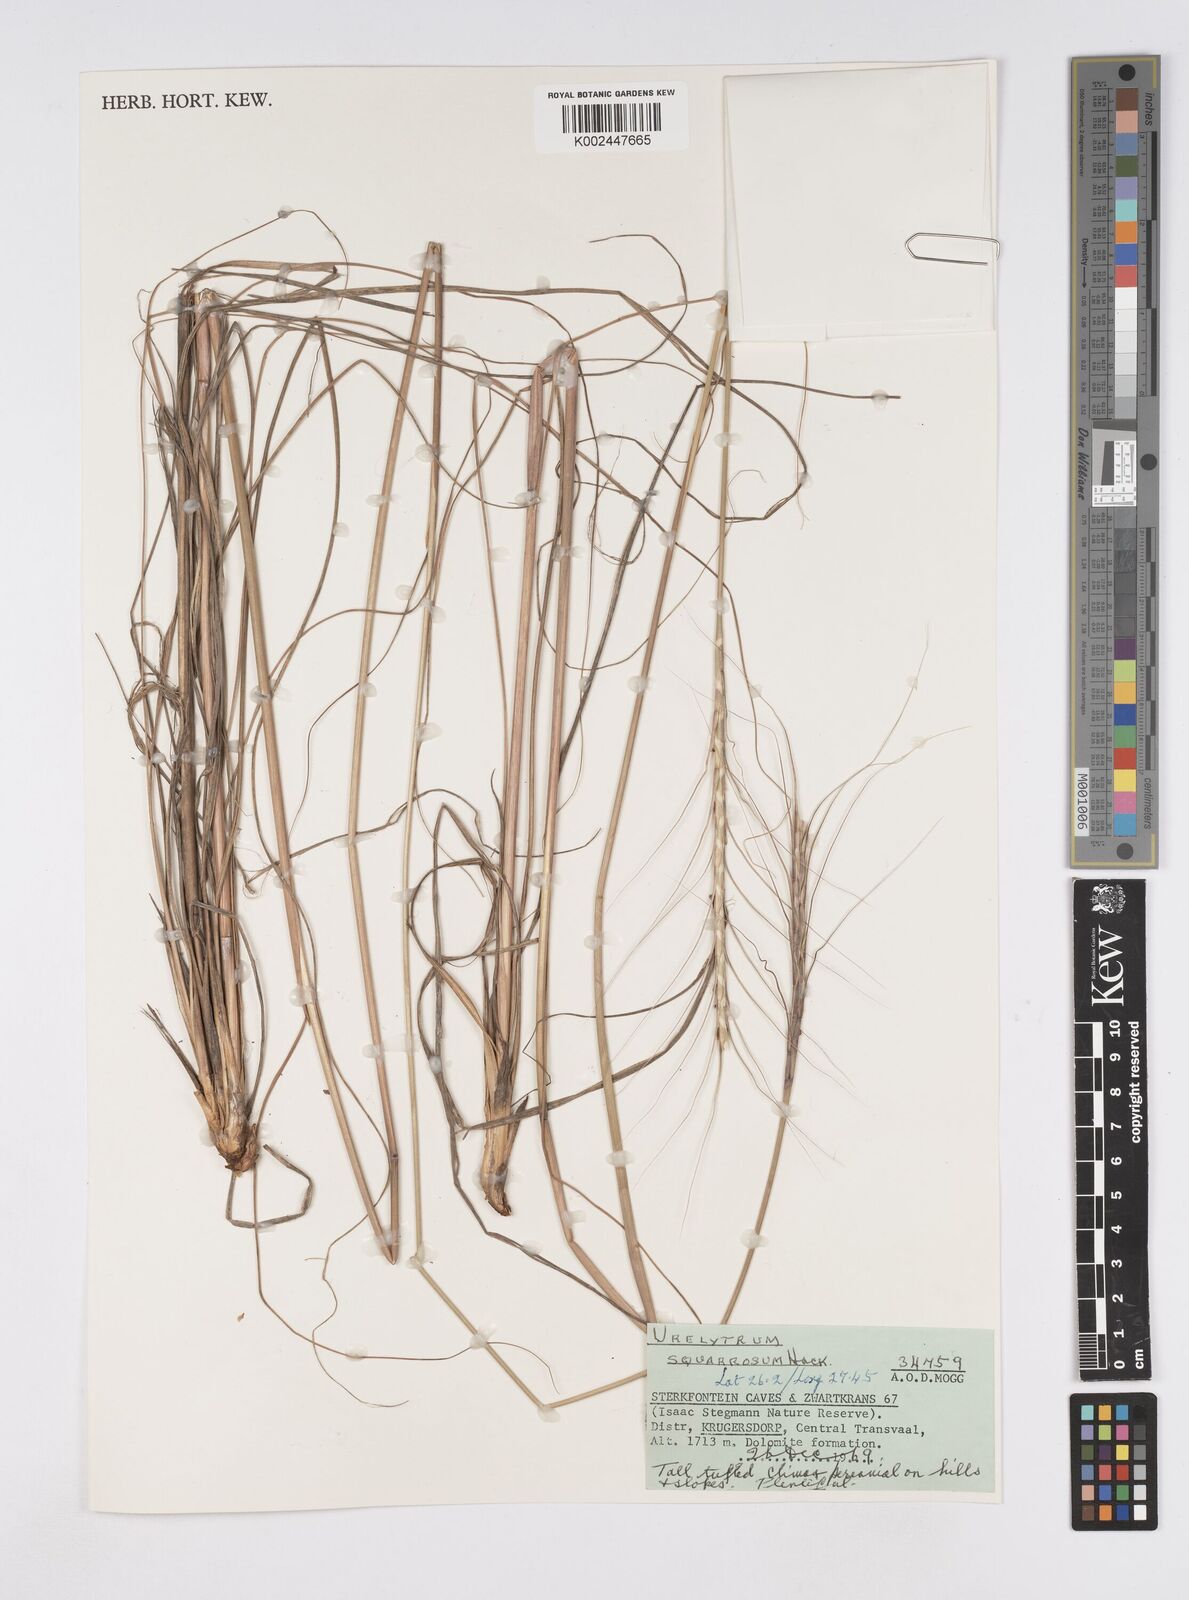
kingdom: Plantae
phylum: Tracheophyta
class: Liliopsida
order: Poales
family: Poaceae
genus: Urelytrum
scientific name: Urelytrum agropyroides
